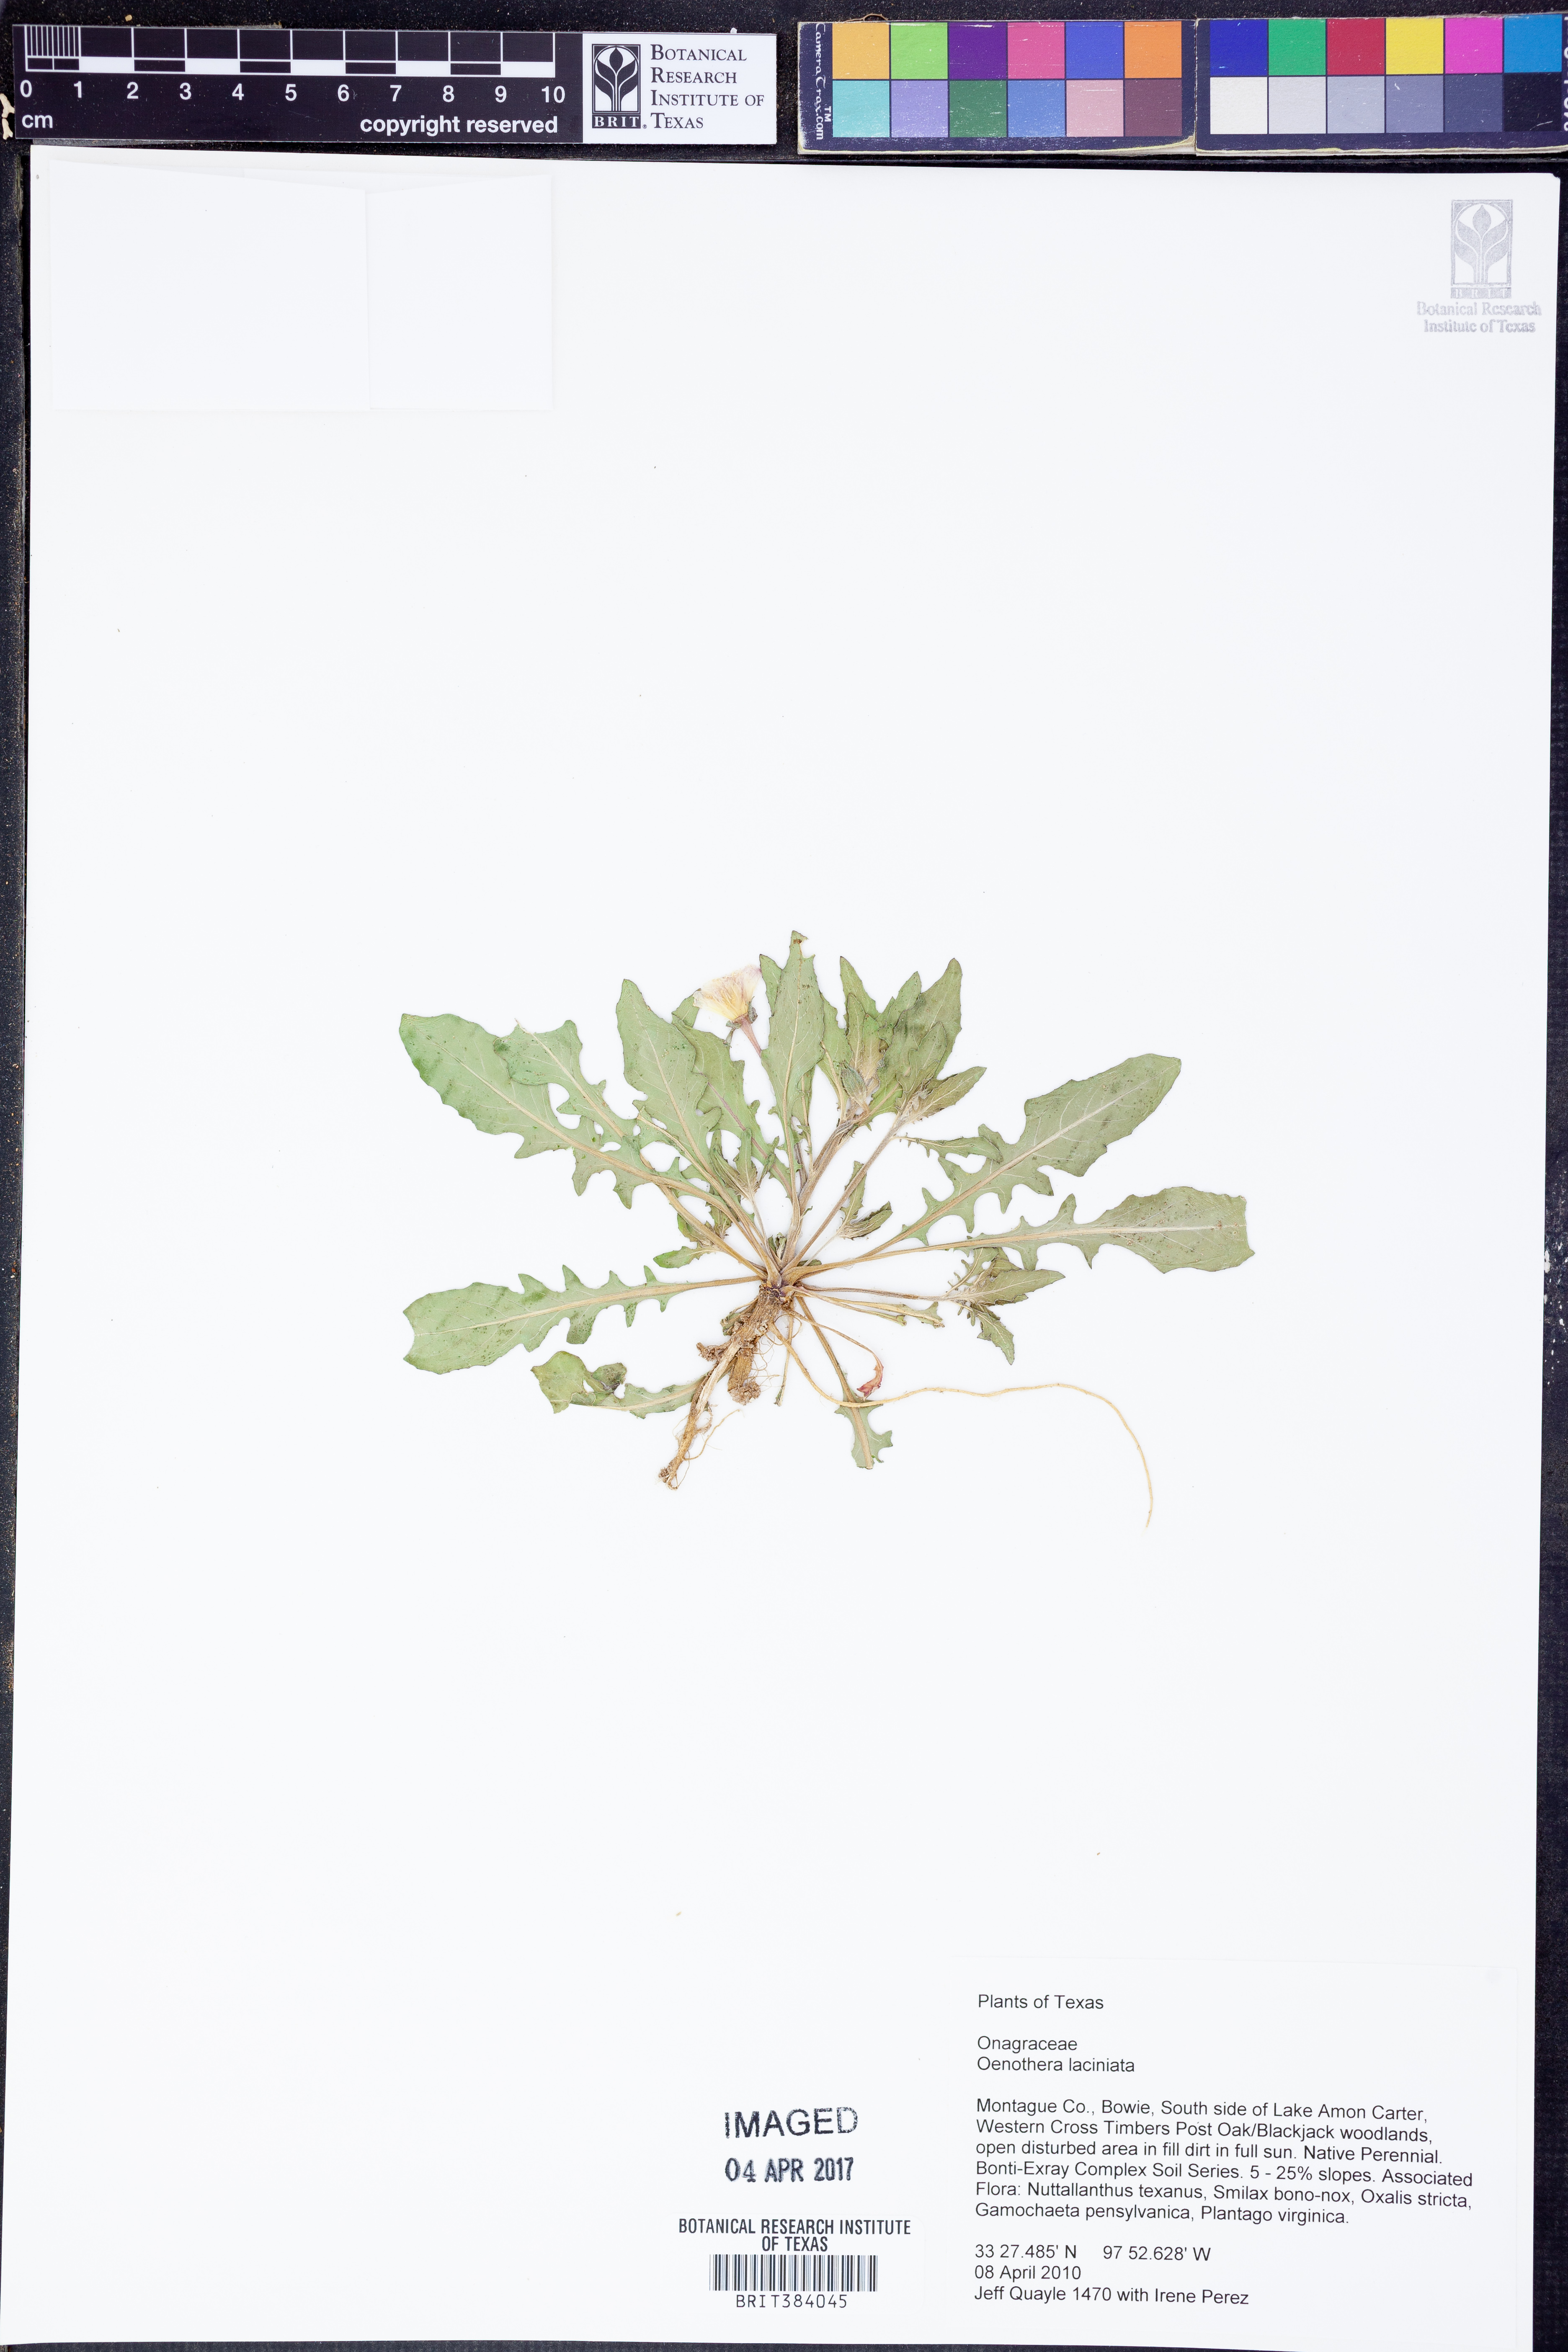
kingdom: Plantae
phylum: Tracheophyta
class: Magnoliopsida
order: Myrtales
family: Onagraceae
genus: Oenothera
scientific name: Oenothera laciniata
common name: Cut-leaved evening-primrose
